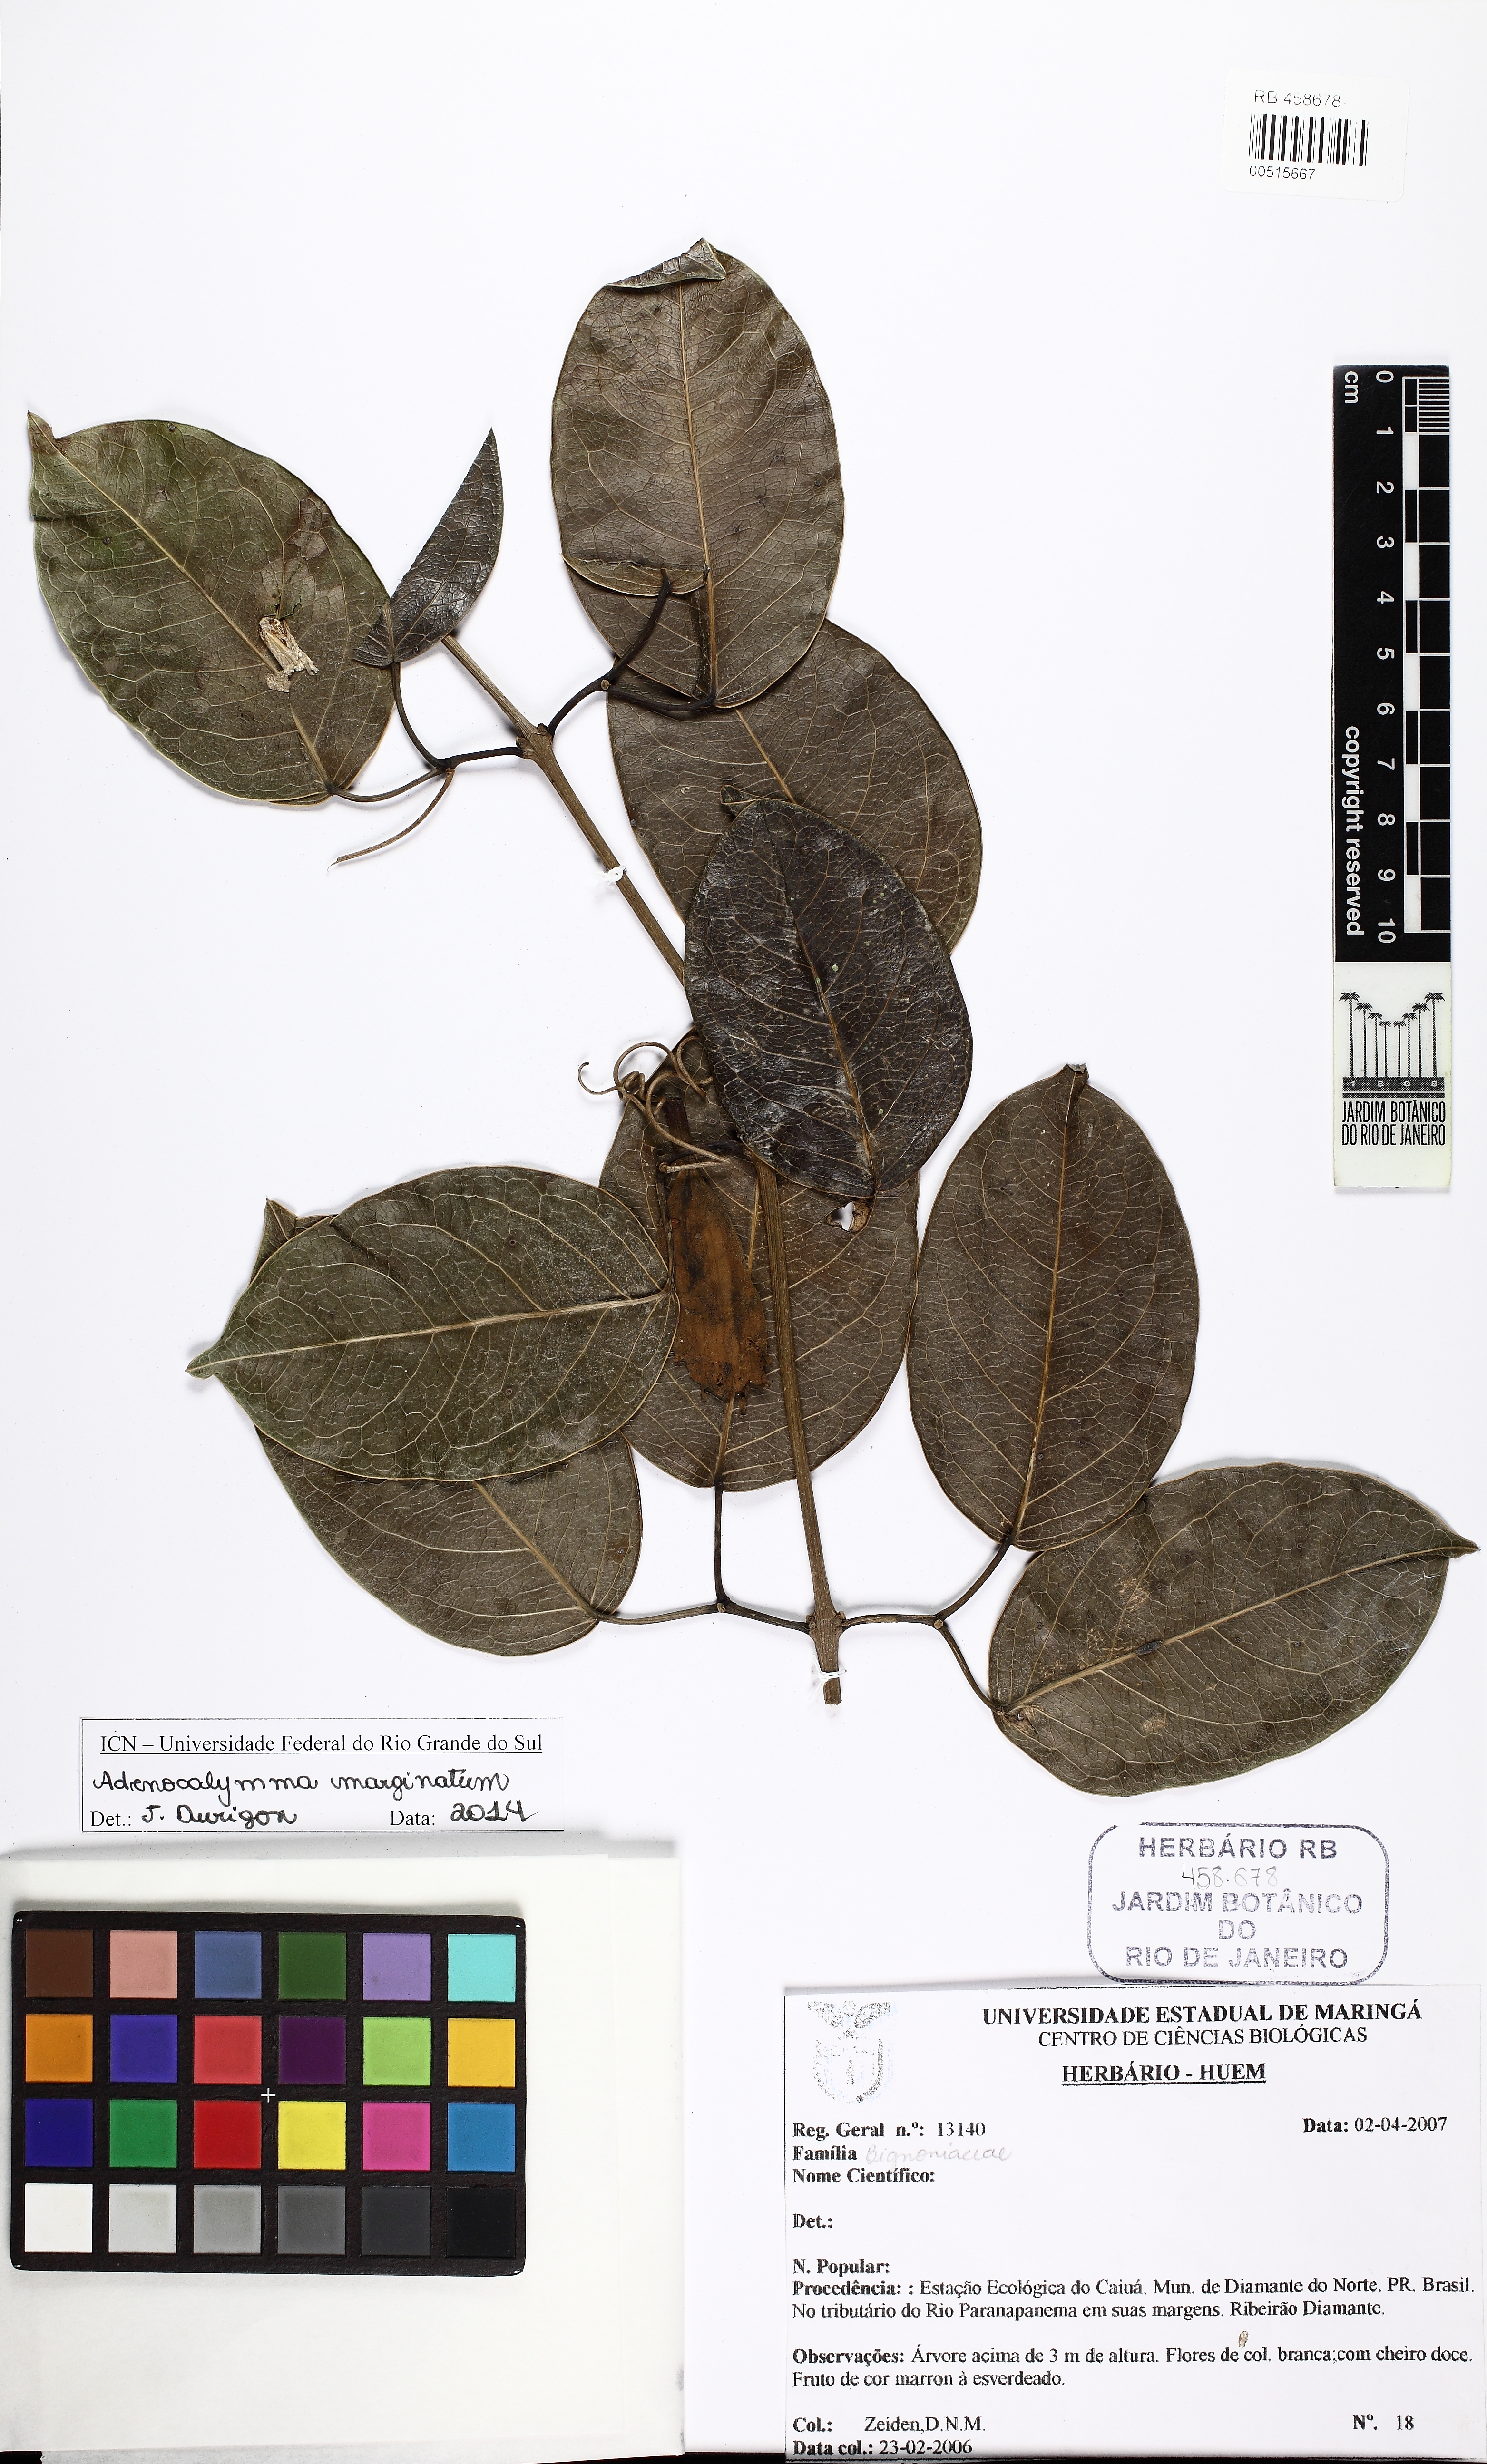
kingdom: Plantae
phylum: Tracheophyta
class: Magnoliopsida
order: Lamiales
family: Bignoniaceae
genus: Adenocalymma
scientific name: Adenocalymma marginatum
